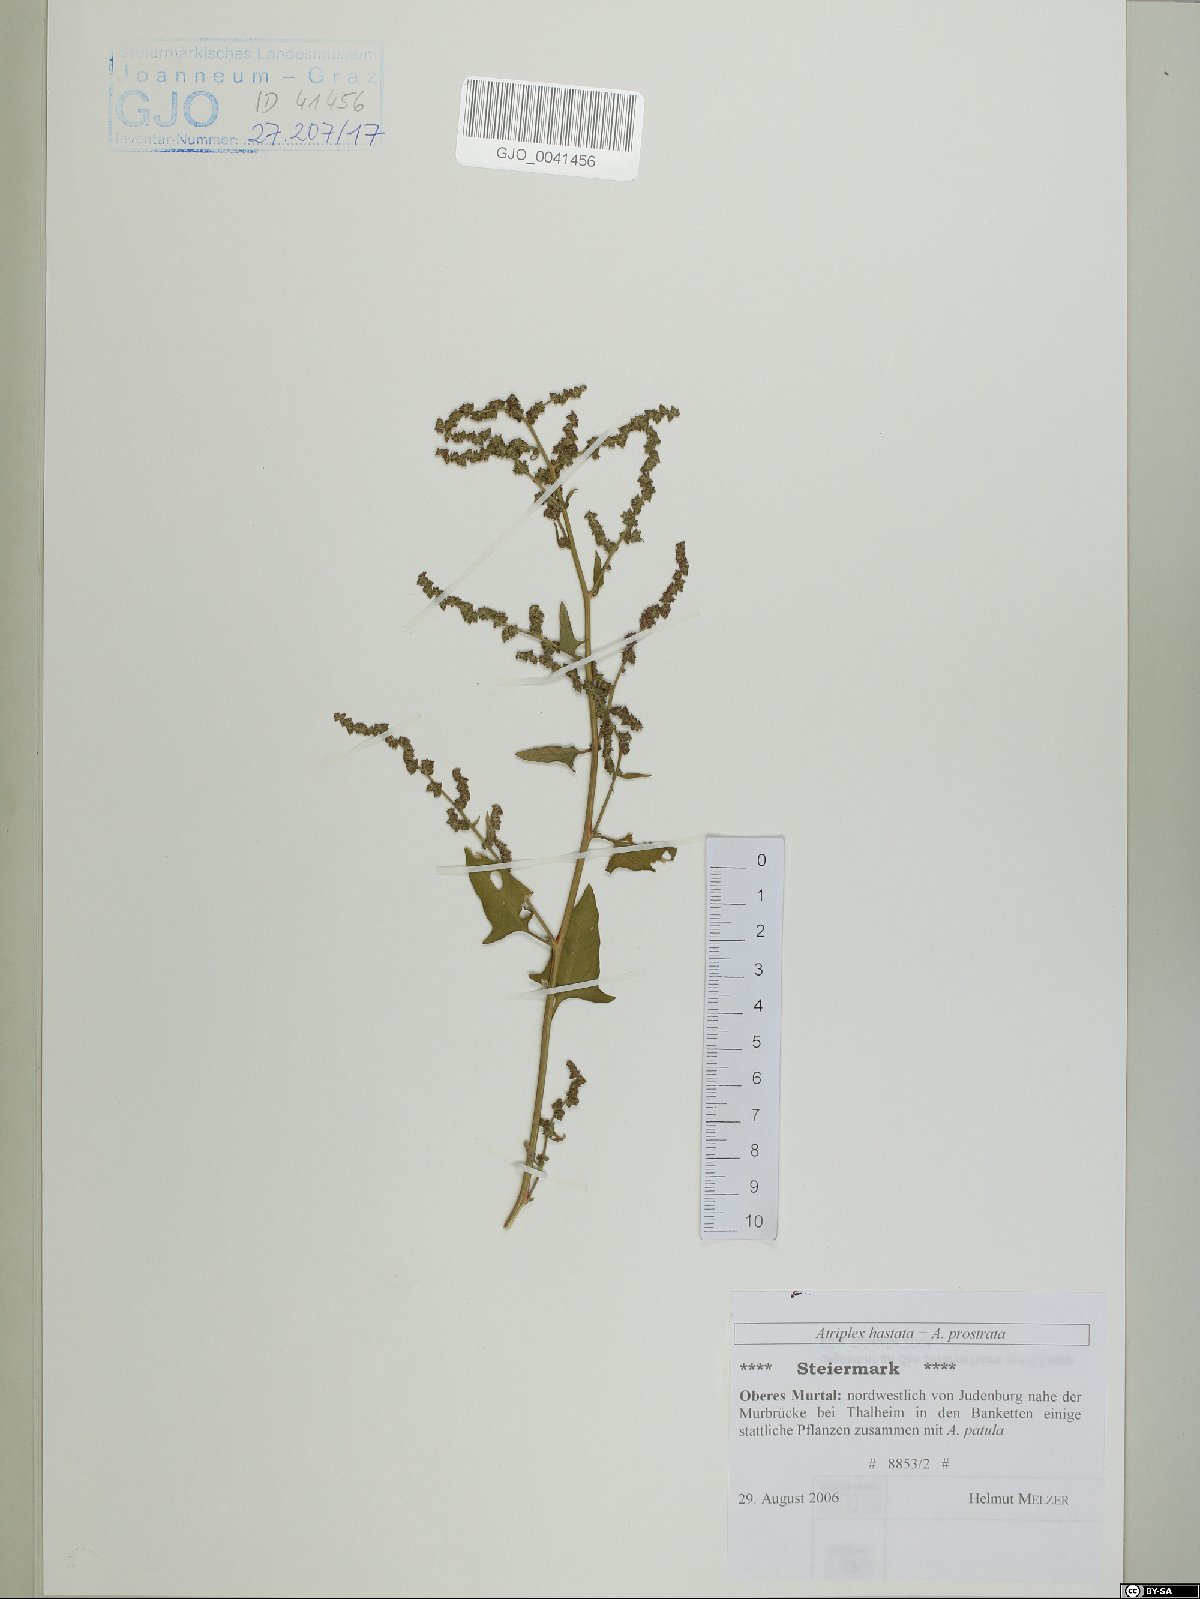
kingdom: Plantae
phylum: Tracheophyta
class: Magnoliopsida
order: Caryophyllales
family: Amaranthaceae
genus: Atriplex
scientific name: Atriplex calotheca
